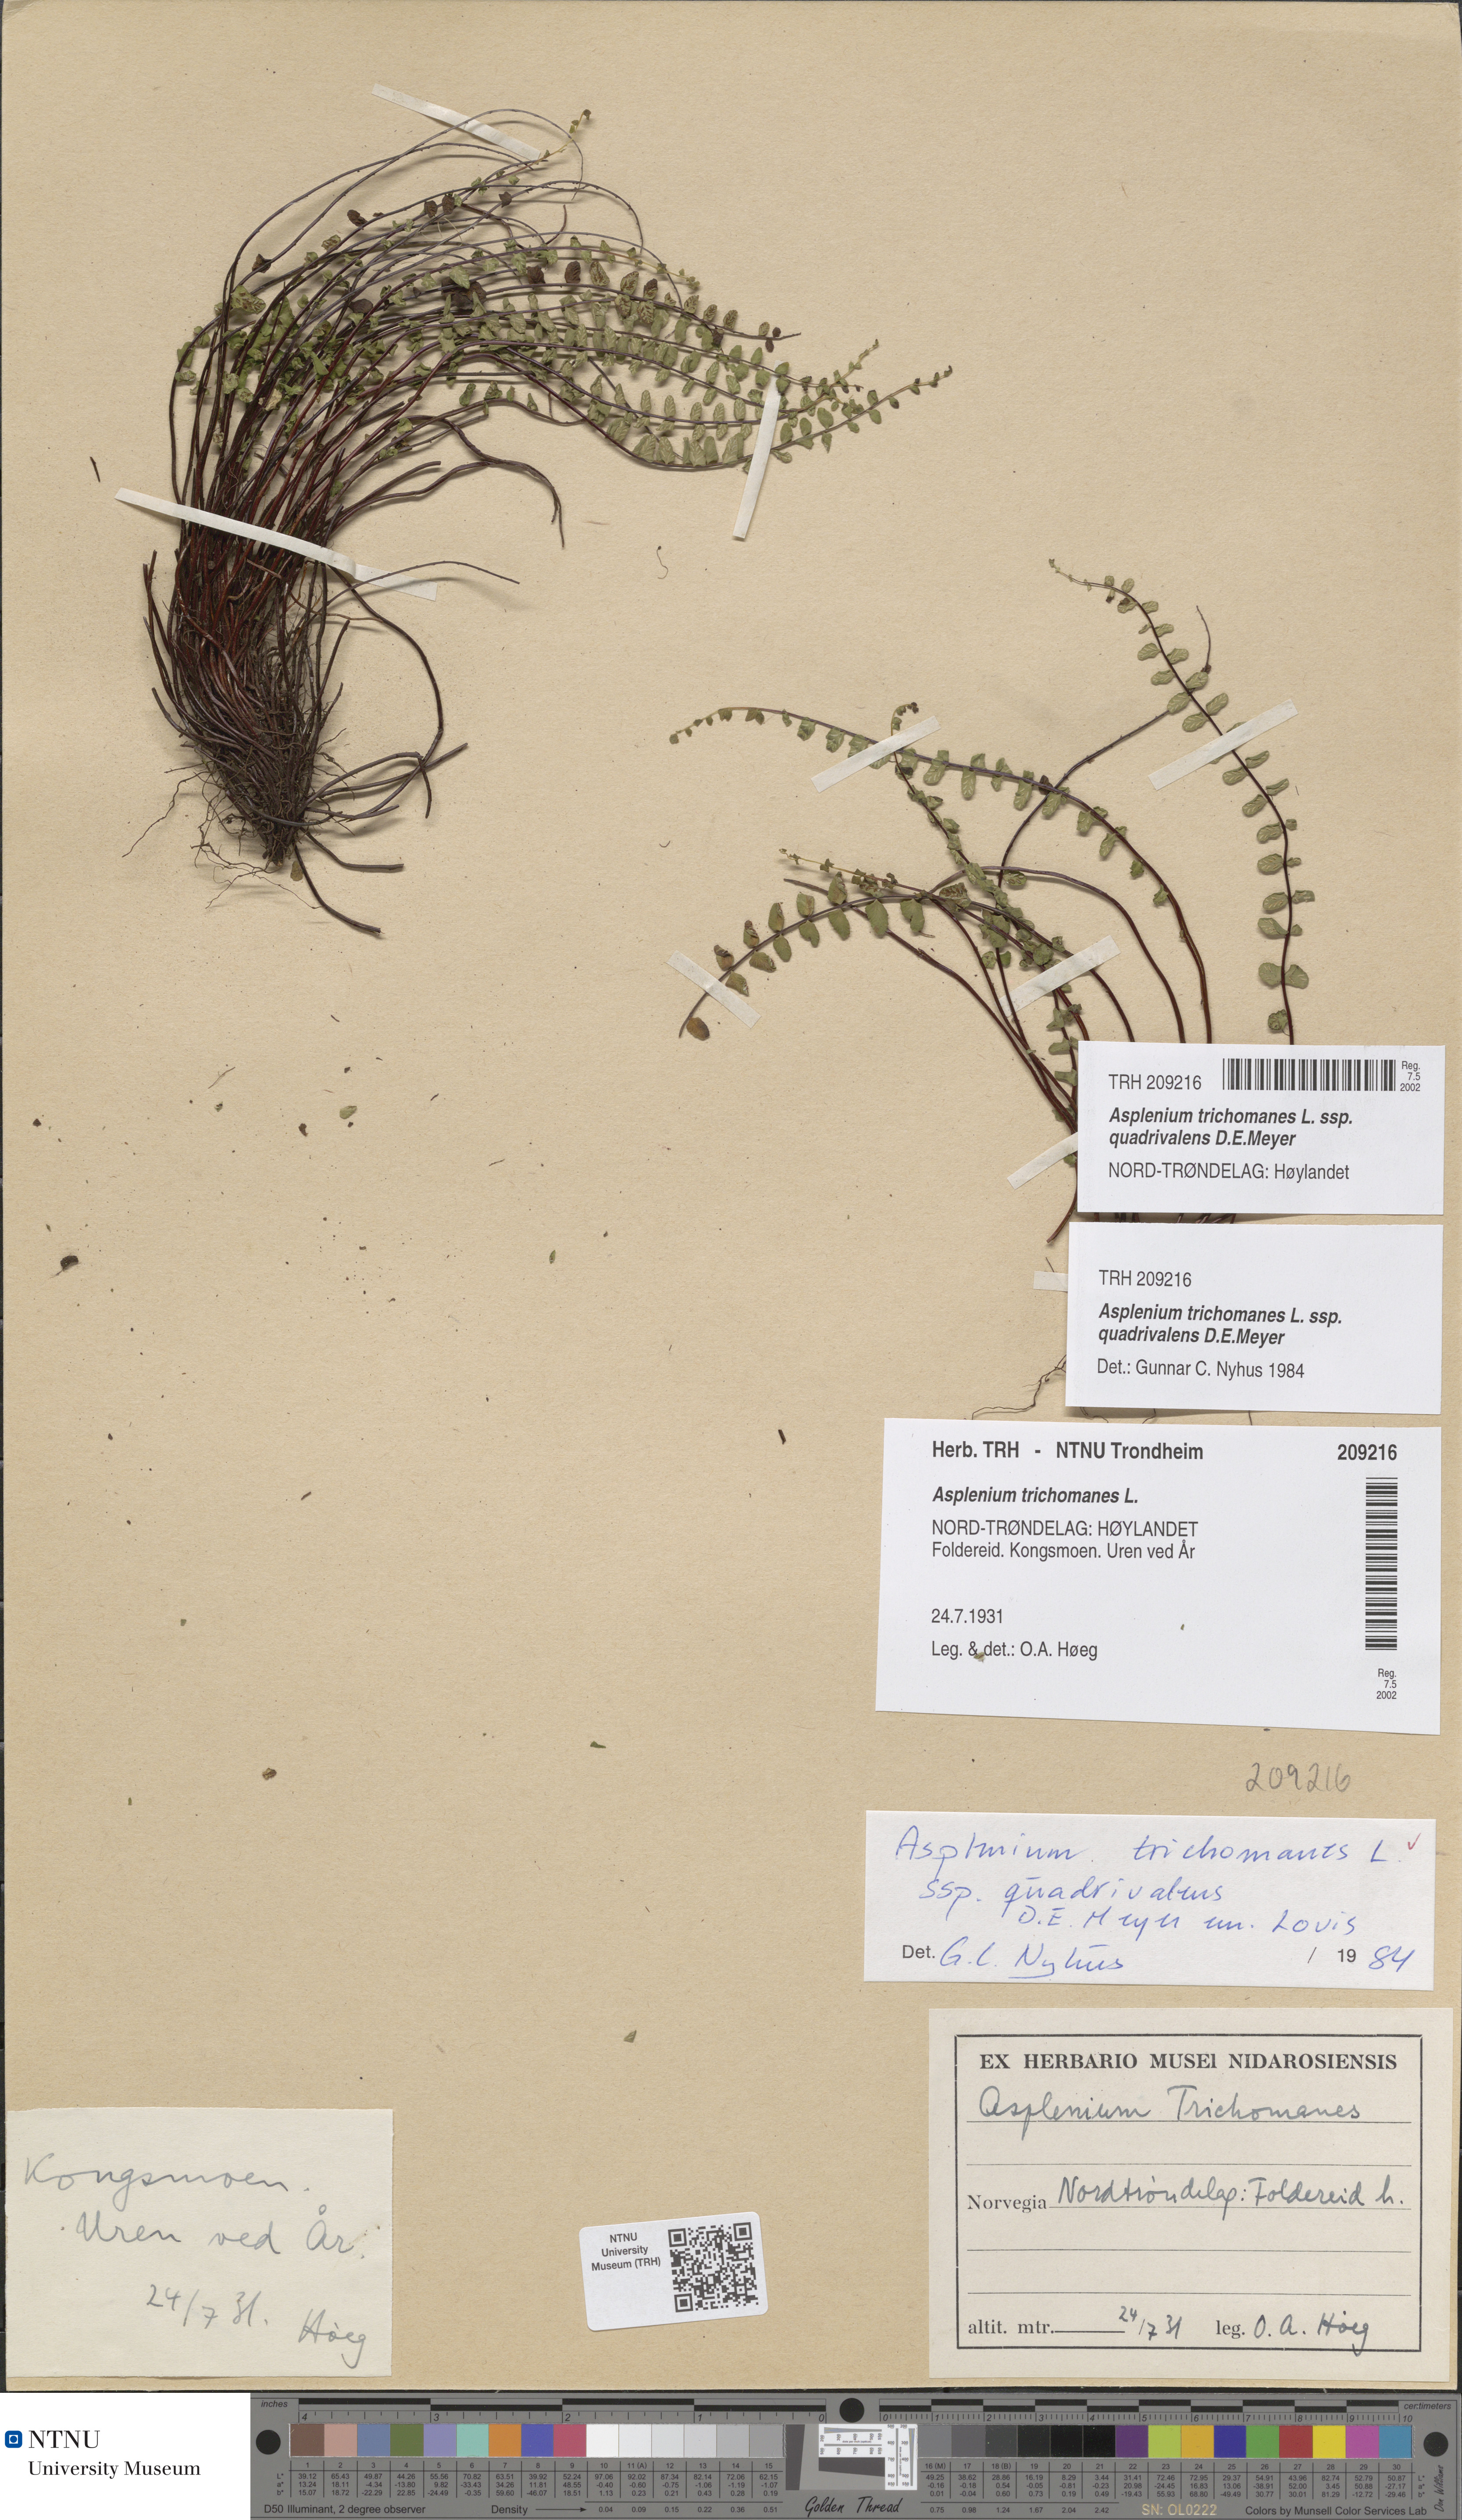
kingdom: Plantae
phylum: Tracheophyta
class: Polypodiopsida
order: Polypodiales
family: Aspleniaceae
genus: Asplenium
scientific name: Asplenium quadrivalens
